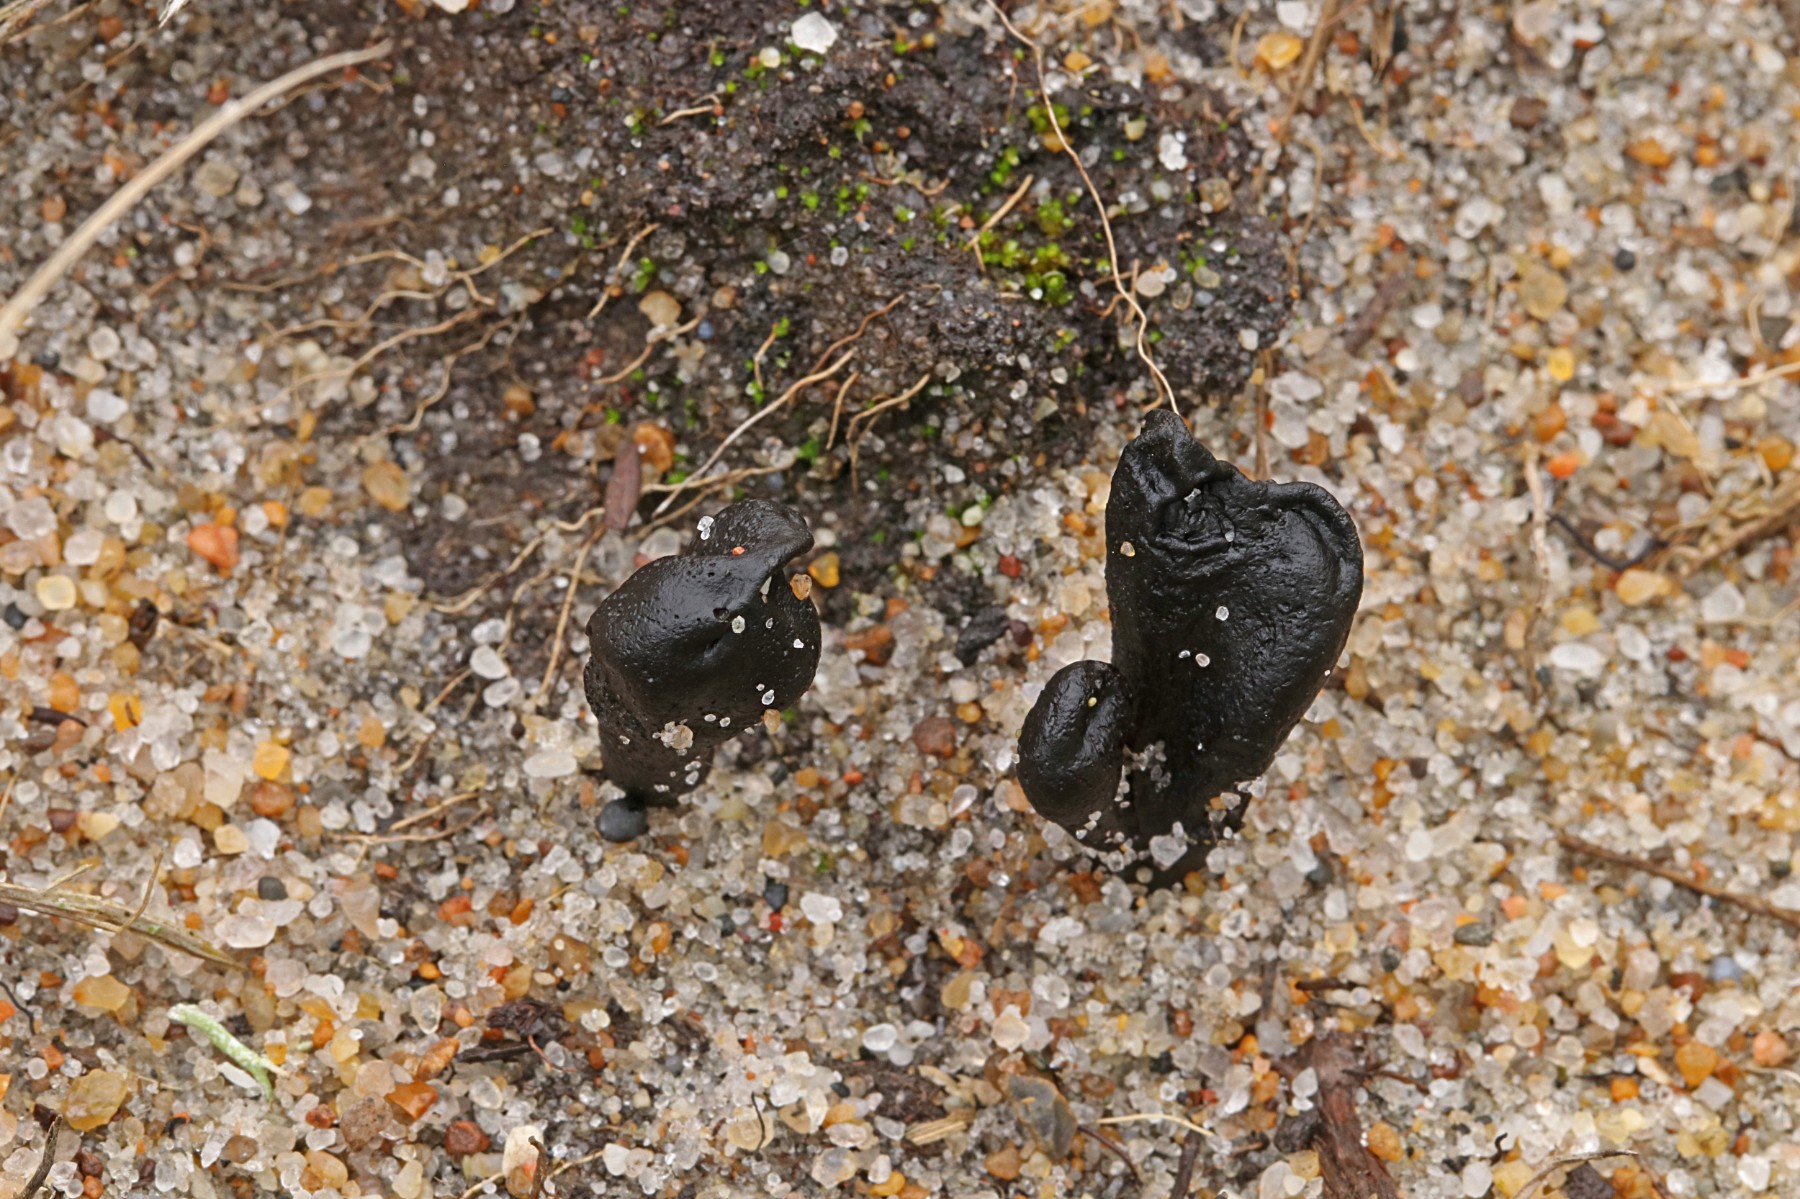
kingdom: Fungi
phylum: Ascomycota
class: Geoglossomycetes
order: Geoglossales
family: Geoglossaceae
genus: Sabuloglossum
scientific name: Sabuloglossum arenarium
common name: klit-jordtunge
